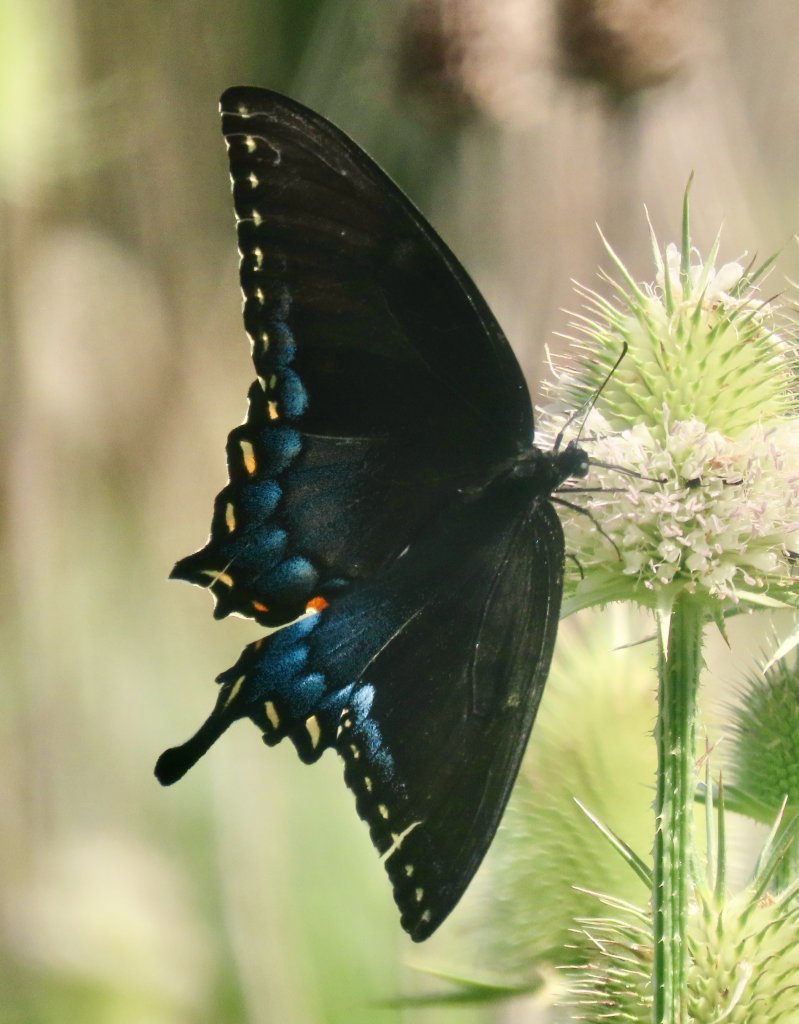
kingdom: Animalia
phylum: Arthropoda
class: Insecta
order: Lepidoptera
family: Papilionidae
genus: Pterourus
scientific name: Pterourus glaucus
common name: Eastern Tiger Swallowtail
